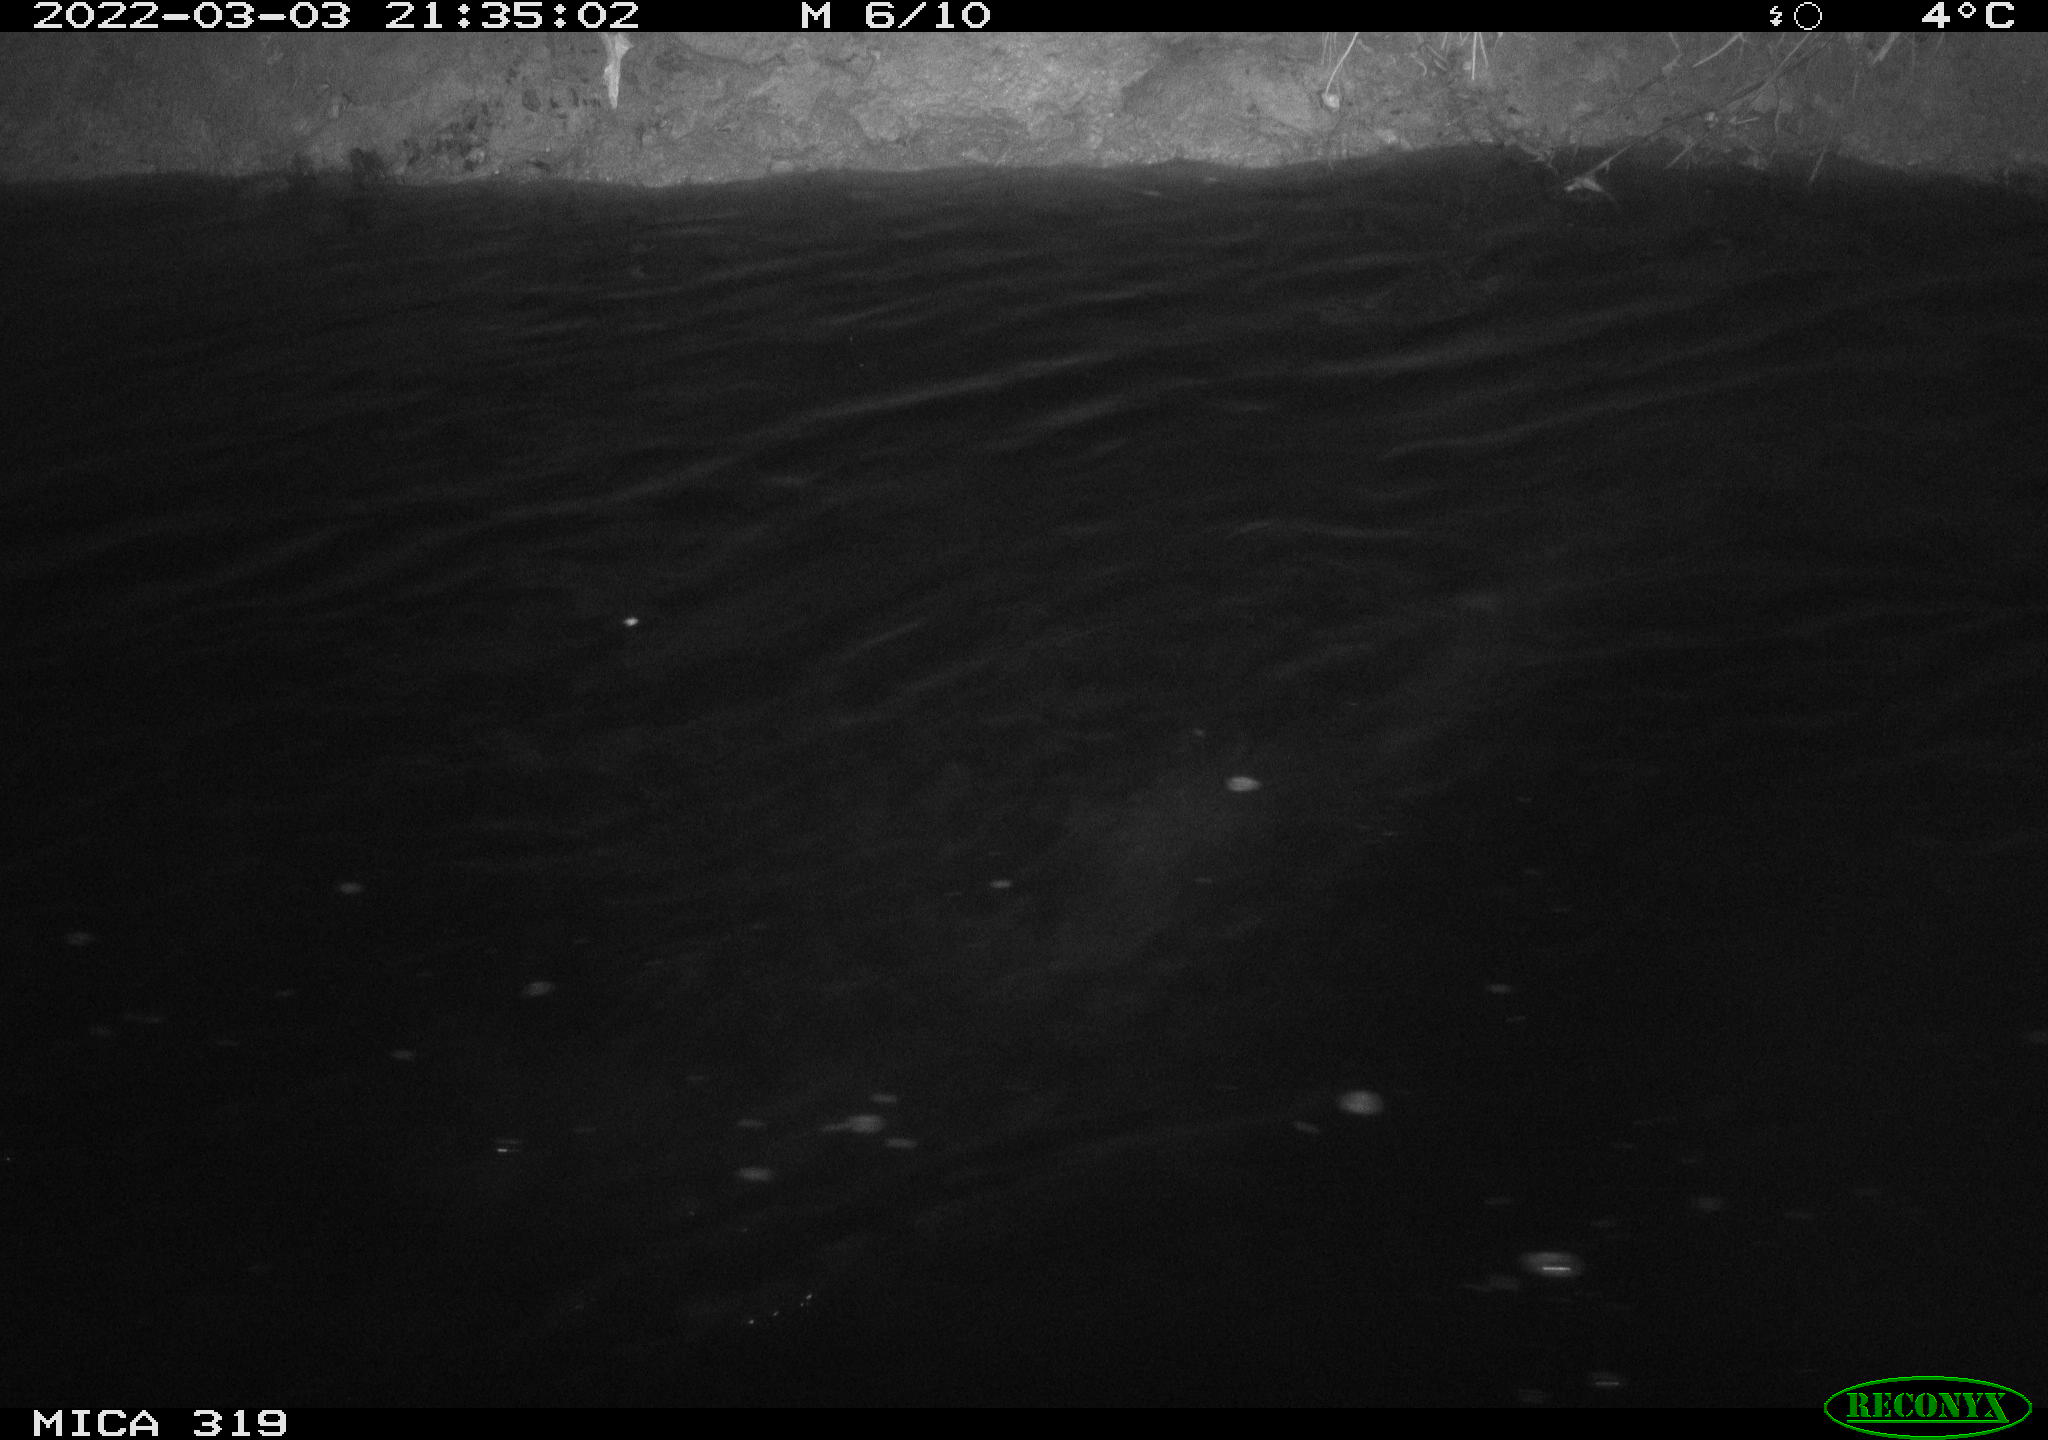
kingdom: Animalia
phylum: Chordata
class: Aves
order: Anseriformes
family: Anatidae
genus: Anas
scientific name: Anas platyrhynchos
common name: Mallard
